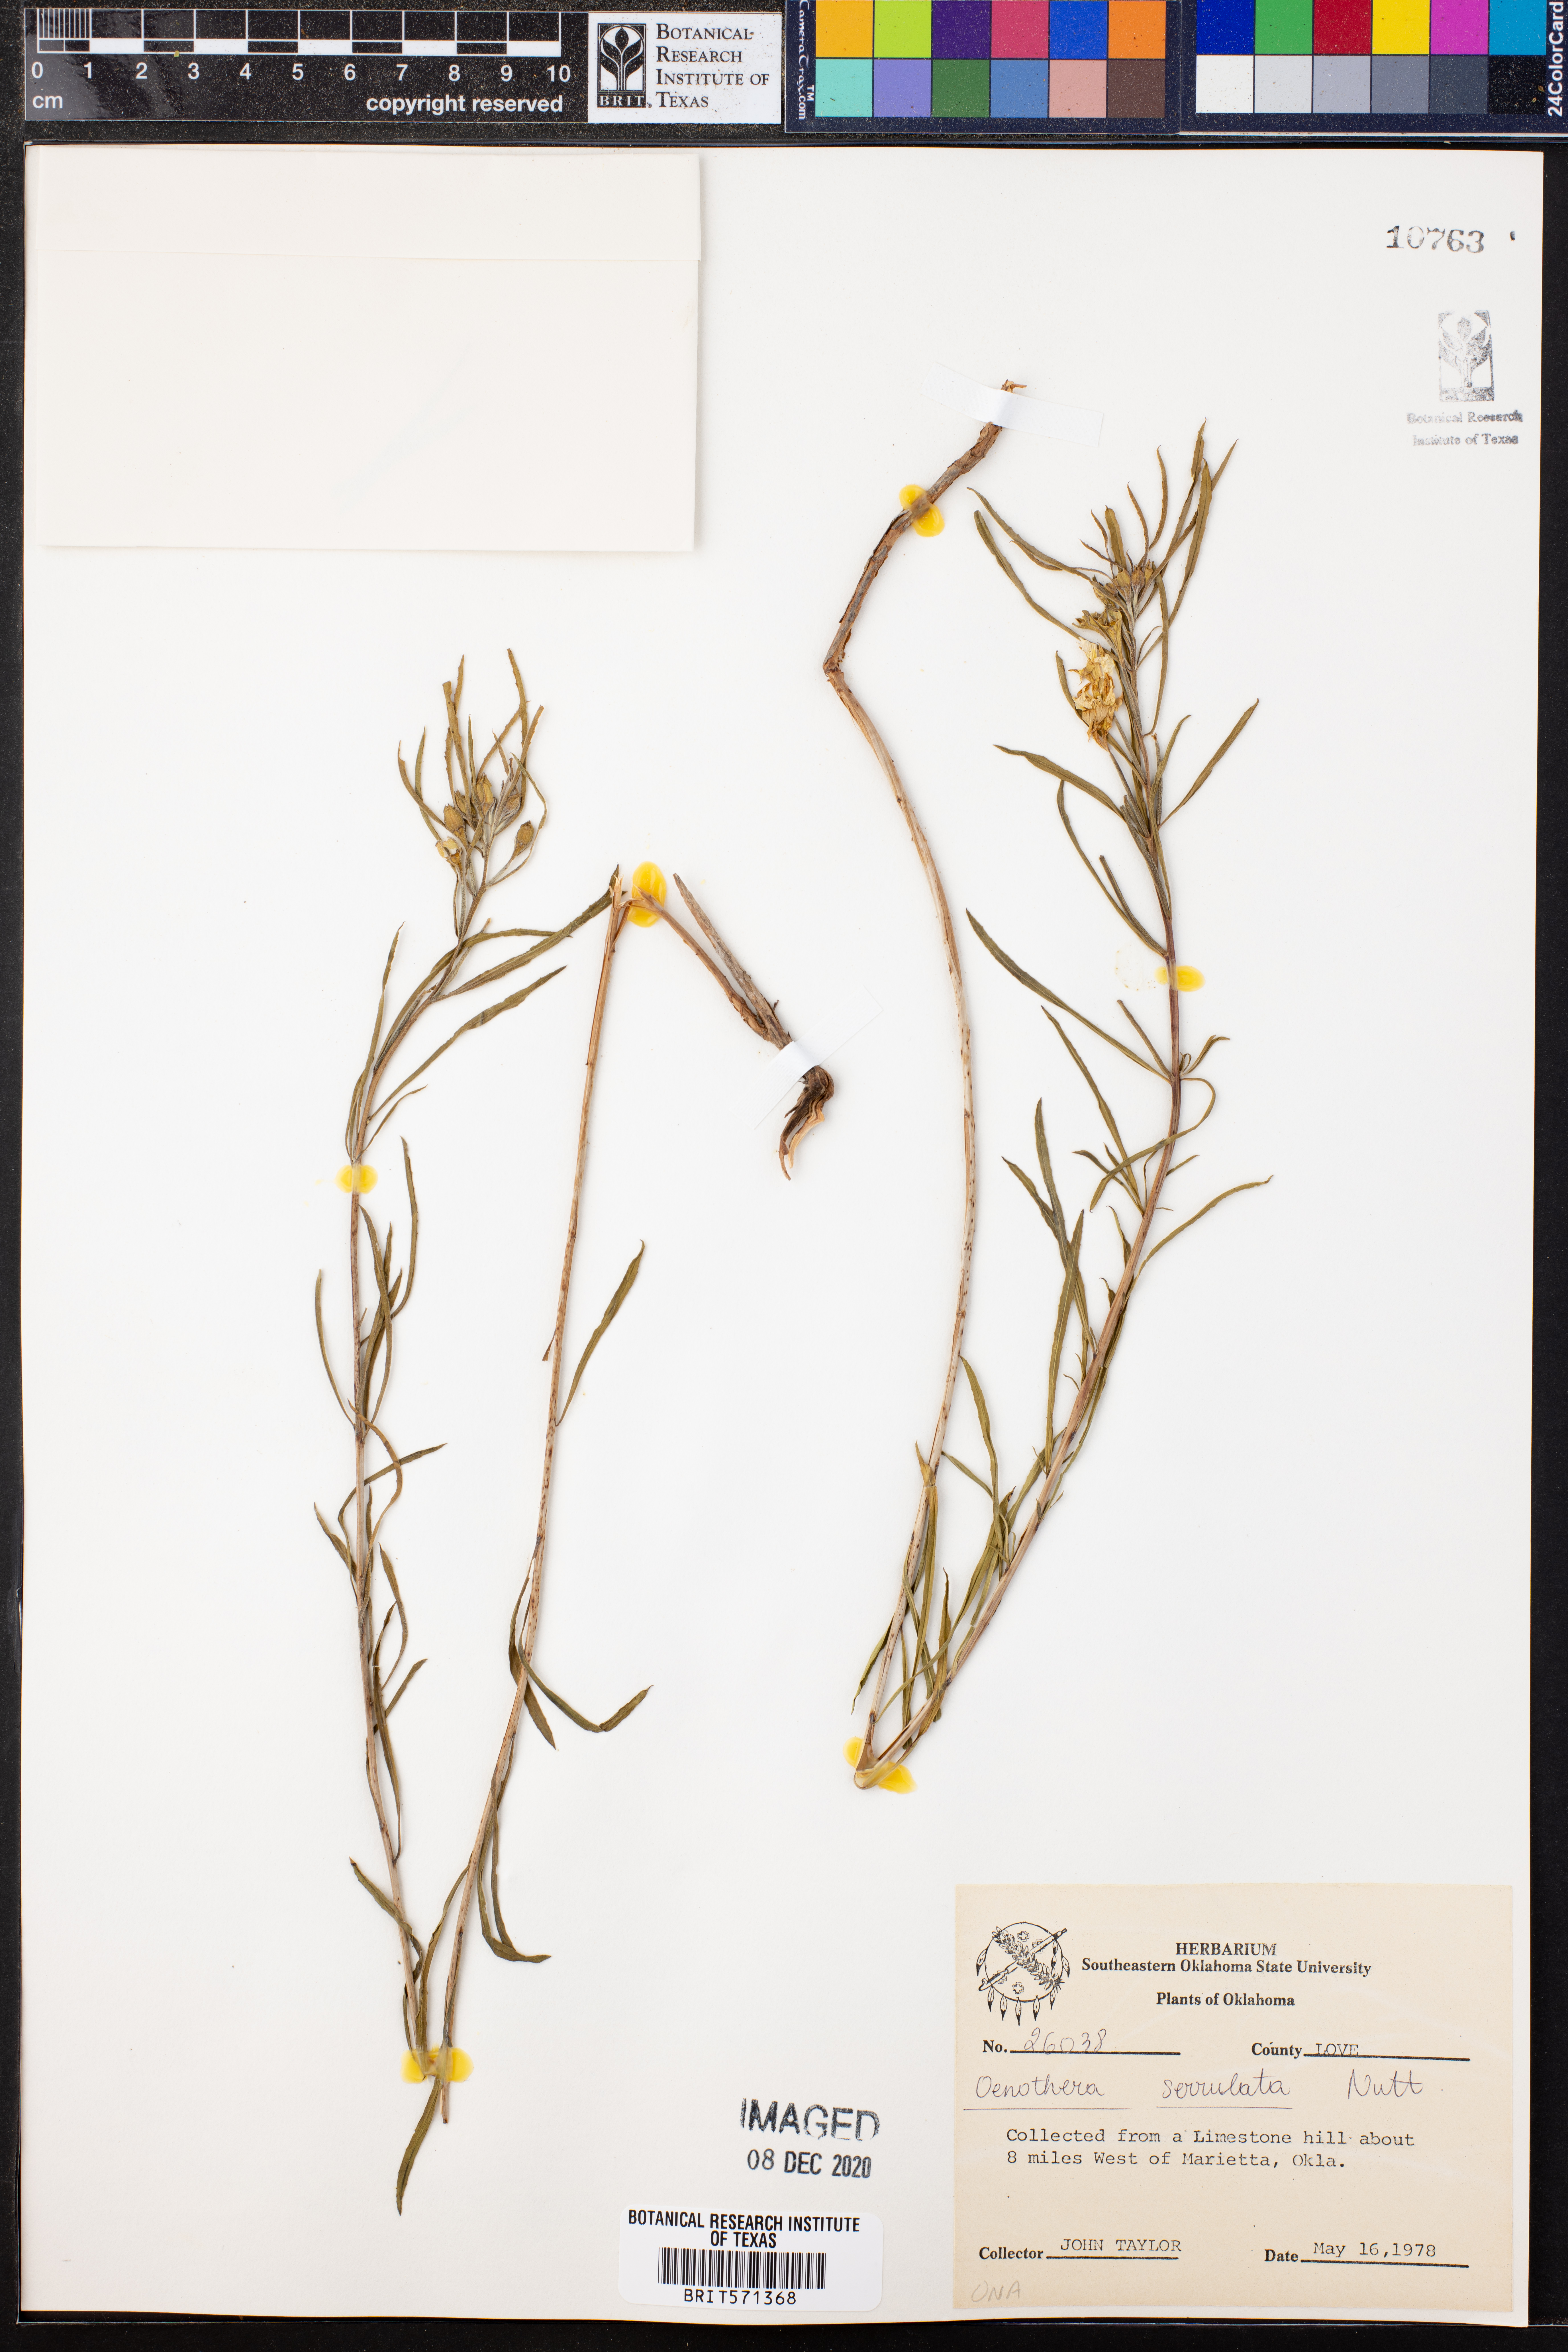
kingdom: Plantae
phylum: Tracheophyta
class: Magnoliopsida
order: Myrtales
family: Onagraceae
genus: Oenothera
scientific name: Oenothera serrulata
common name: Half-shrub calylophus
